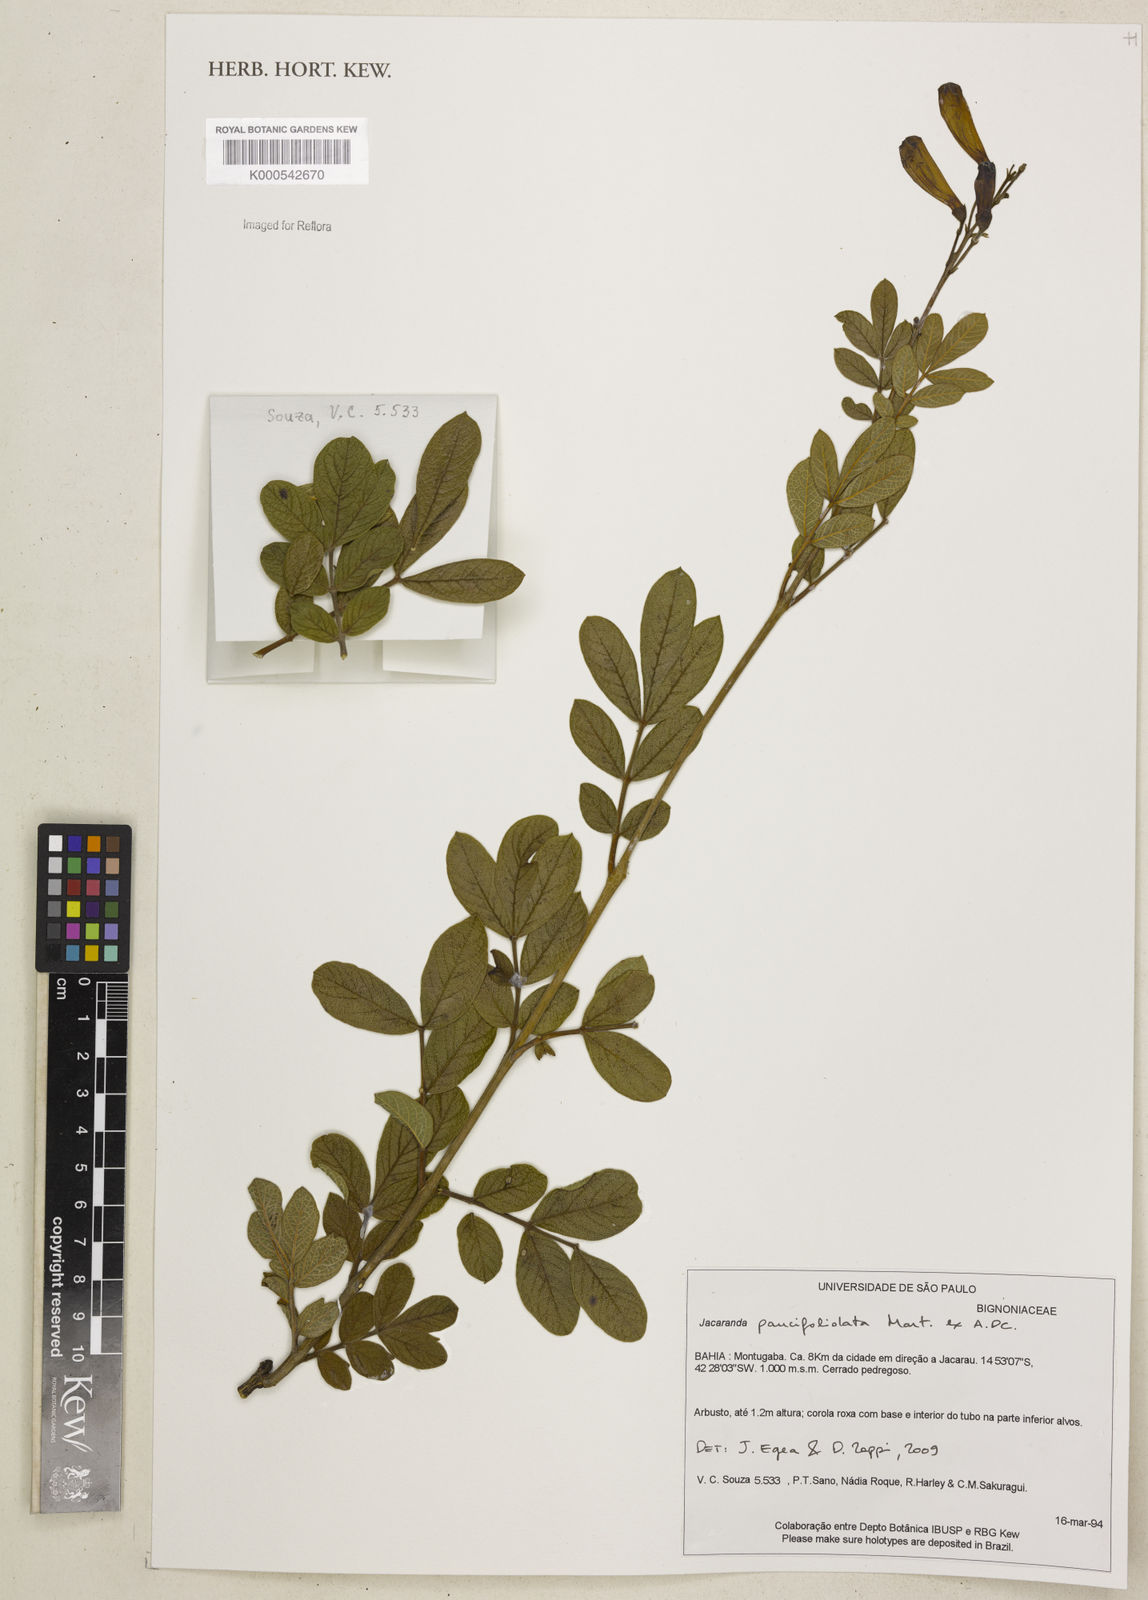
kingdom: Plantae
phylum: Tracheophyta
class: Magnoliopsida
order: Lamiales
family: Bignoniaceae
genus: Jacaranda
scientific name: Jacaranda
